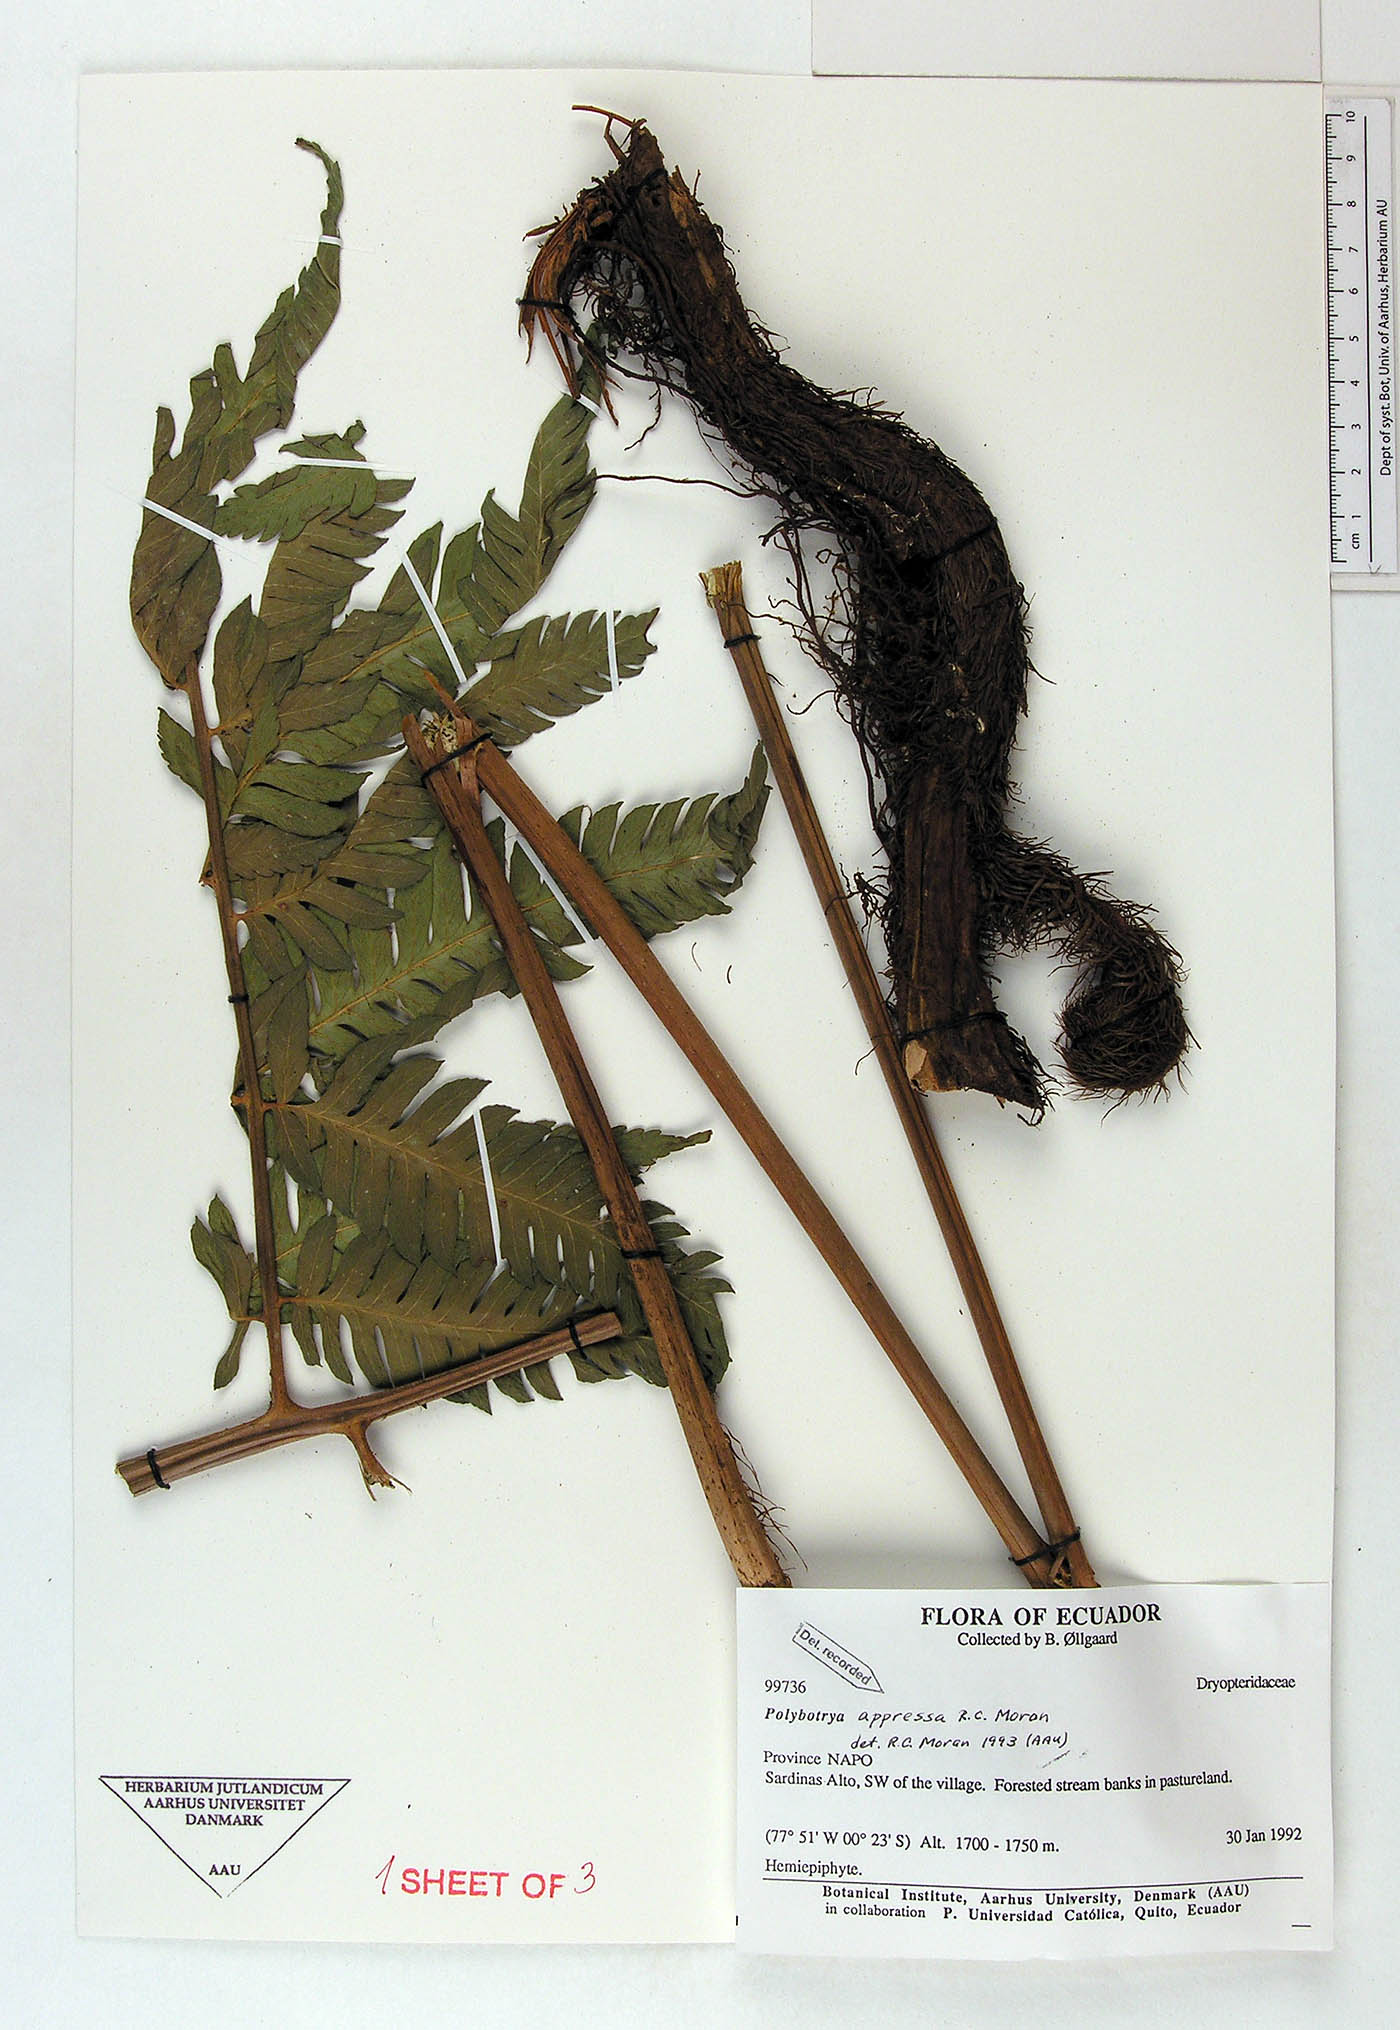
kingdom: Plantae
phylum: Tracheophyta
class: Polypodiopsida
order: Polypodiales
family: Dryopteridaceae
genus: Polybotrya
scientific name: Polybotrya appressa
